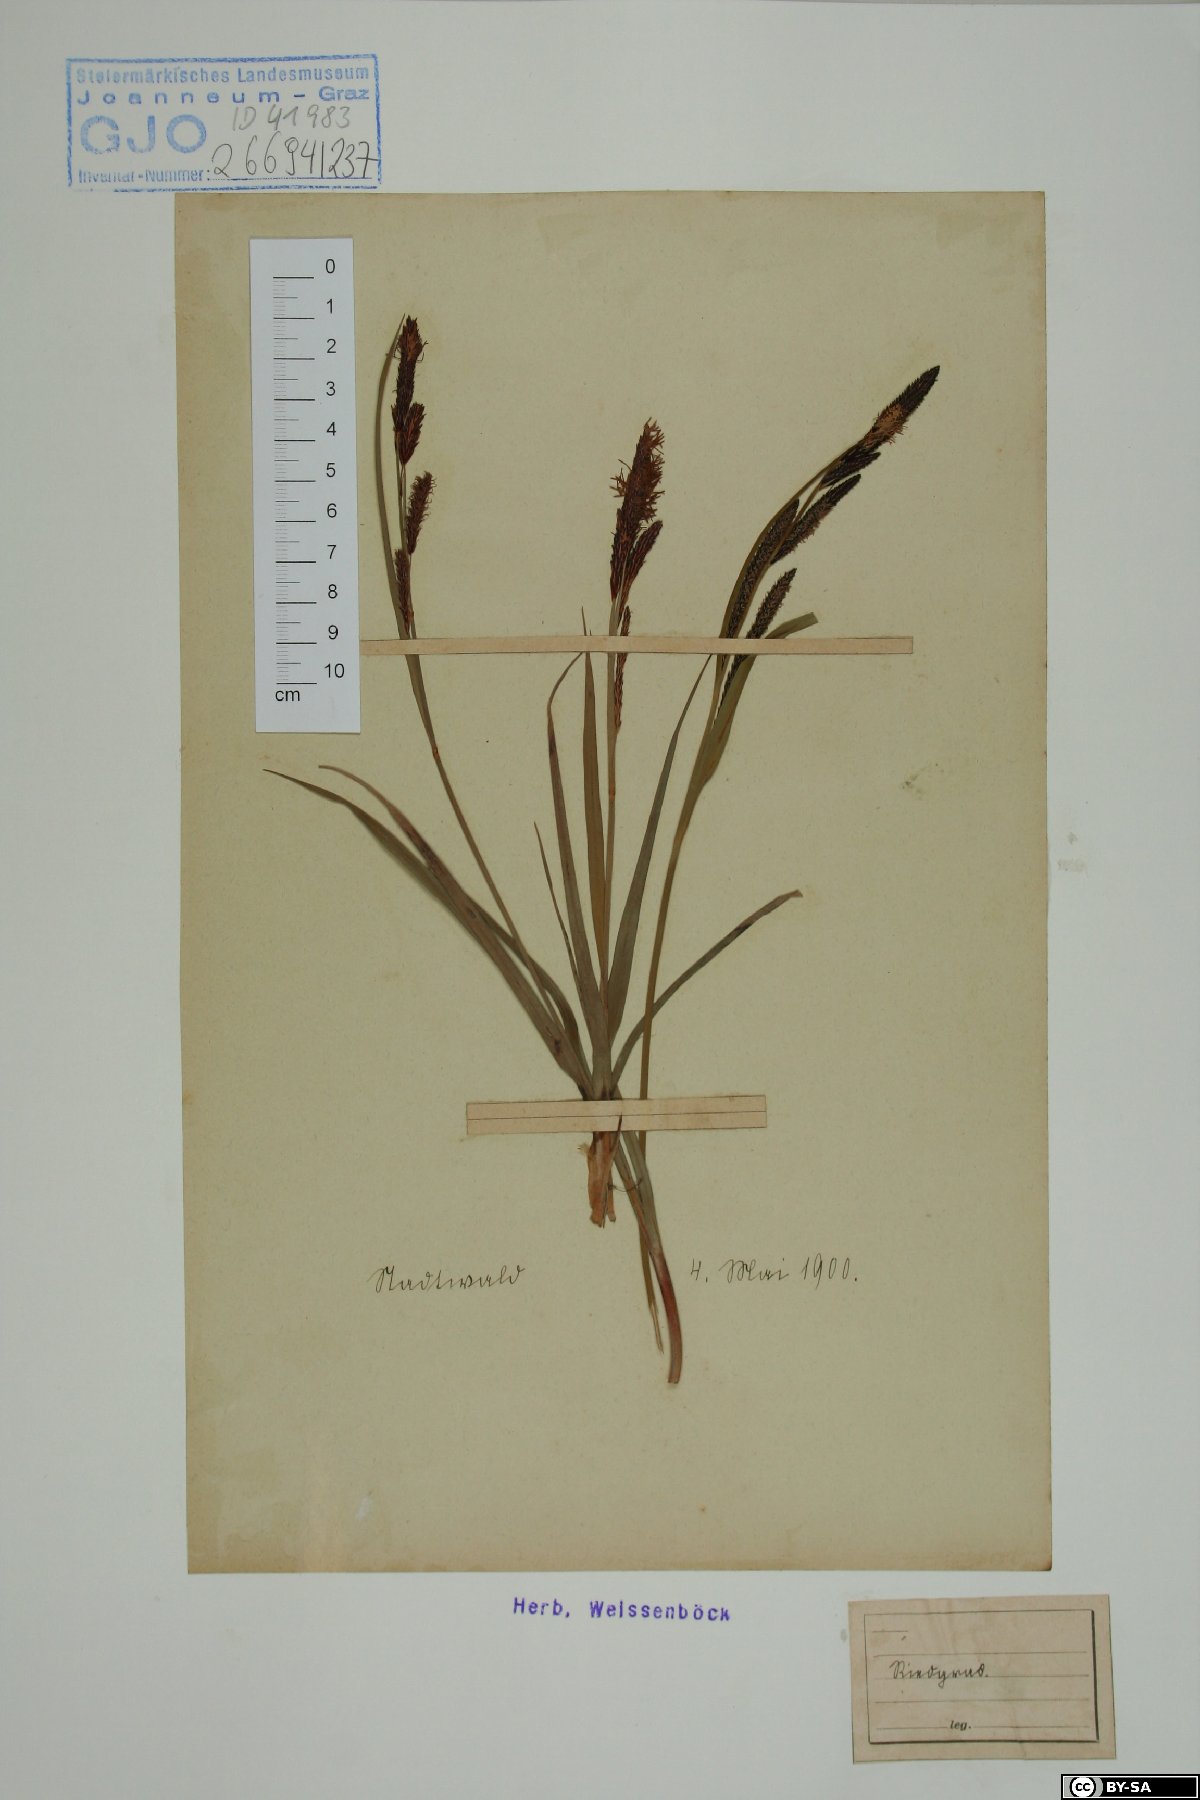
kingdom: Plantae
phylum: Tracheophyta
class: Liliopsida
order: Poales
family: Cyperaceae
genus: Carex
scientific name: Carex
